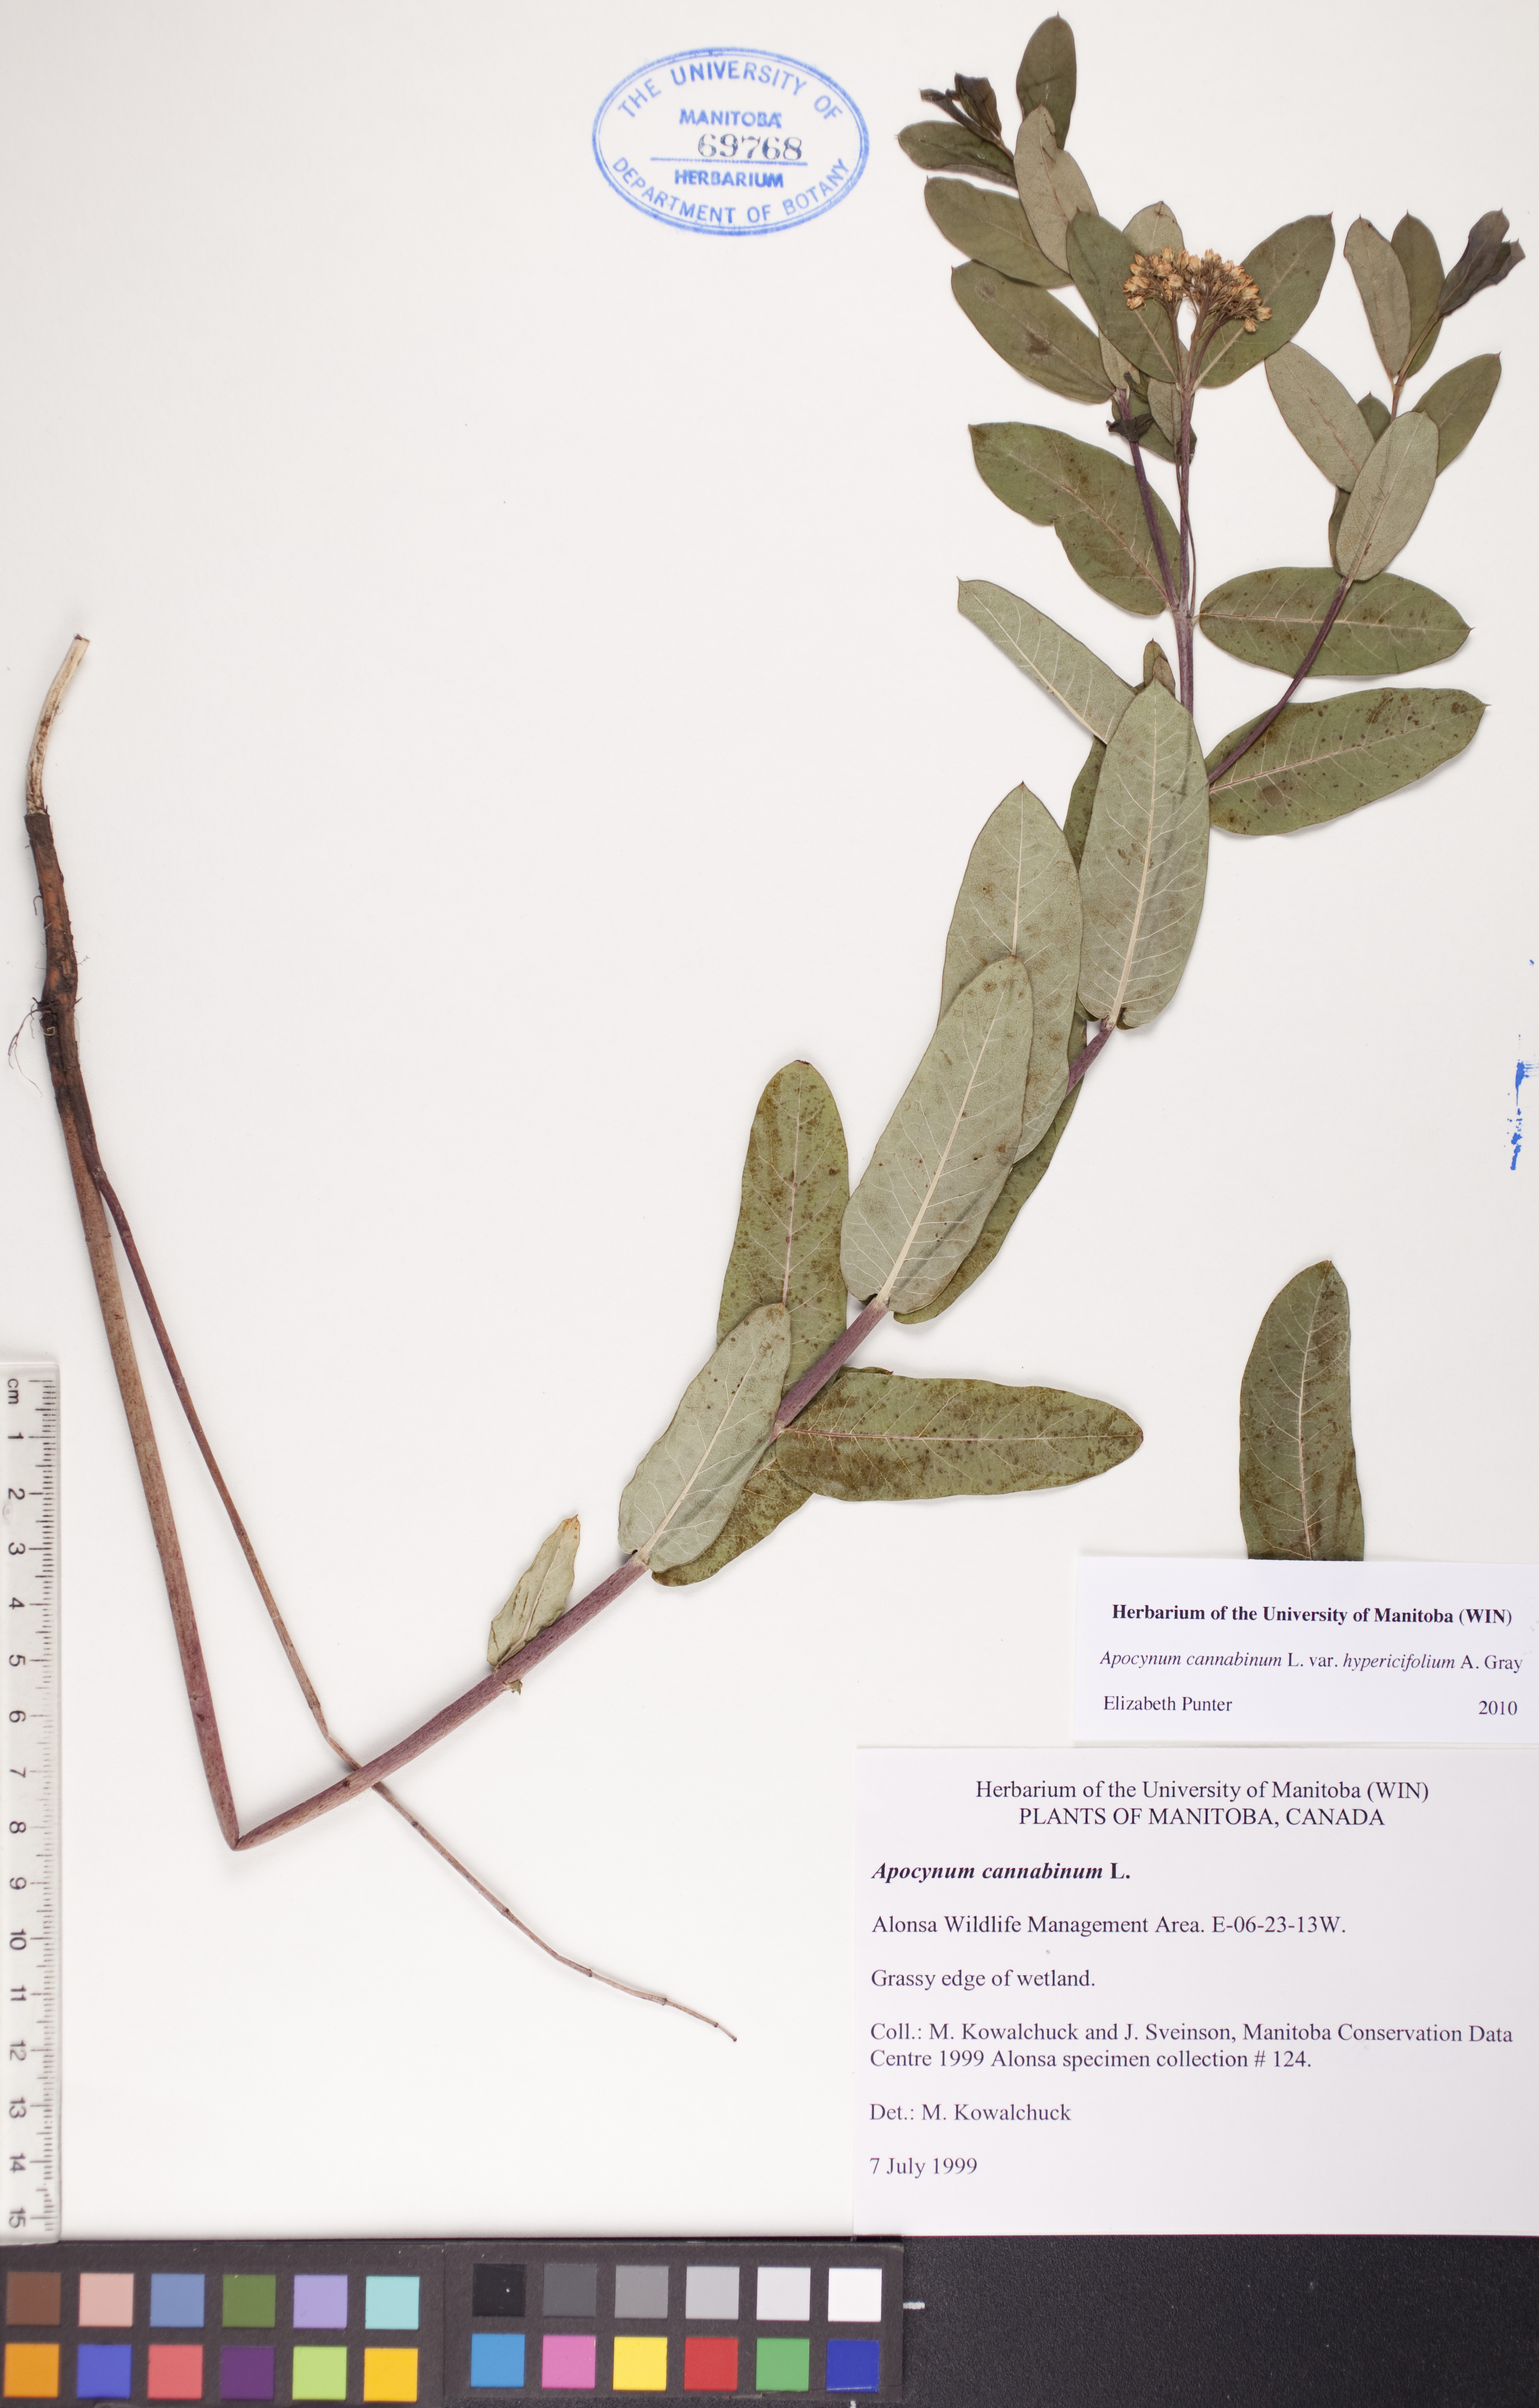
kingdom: Plantae
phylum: Tracheophyta
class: Magnoliopsida
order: Gentianales
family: Apocynaceae
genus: Apocynum
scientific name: Apocynum cannabinum
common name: Hemp dogbane
